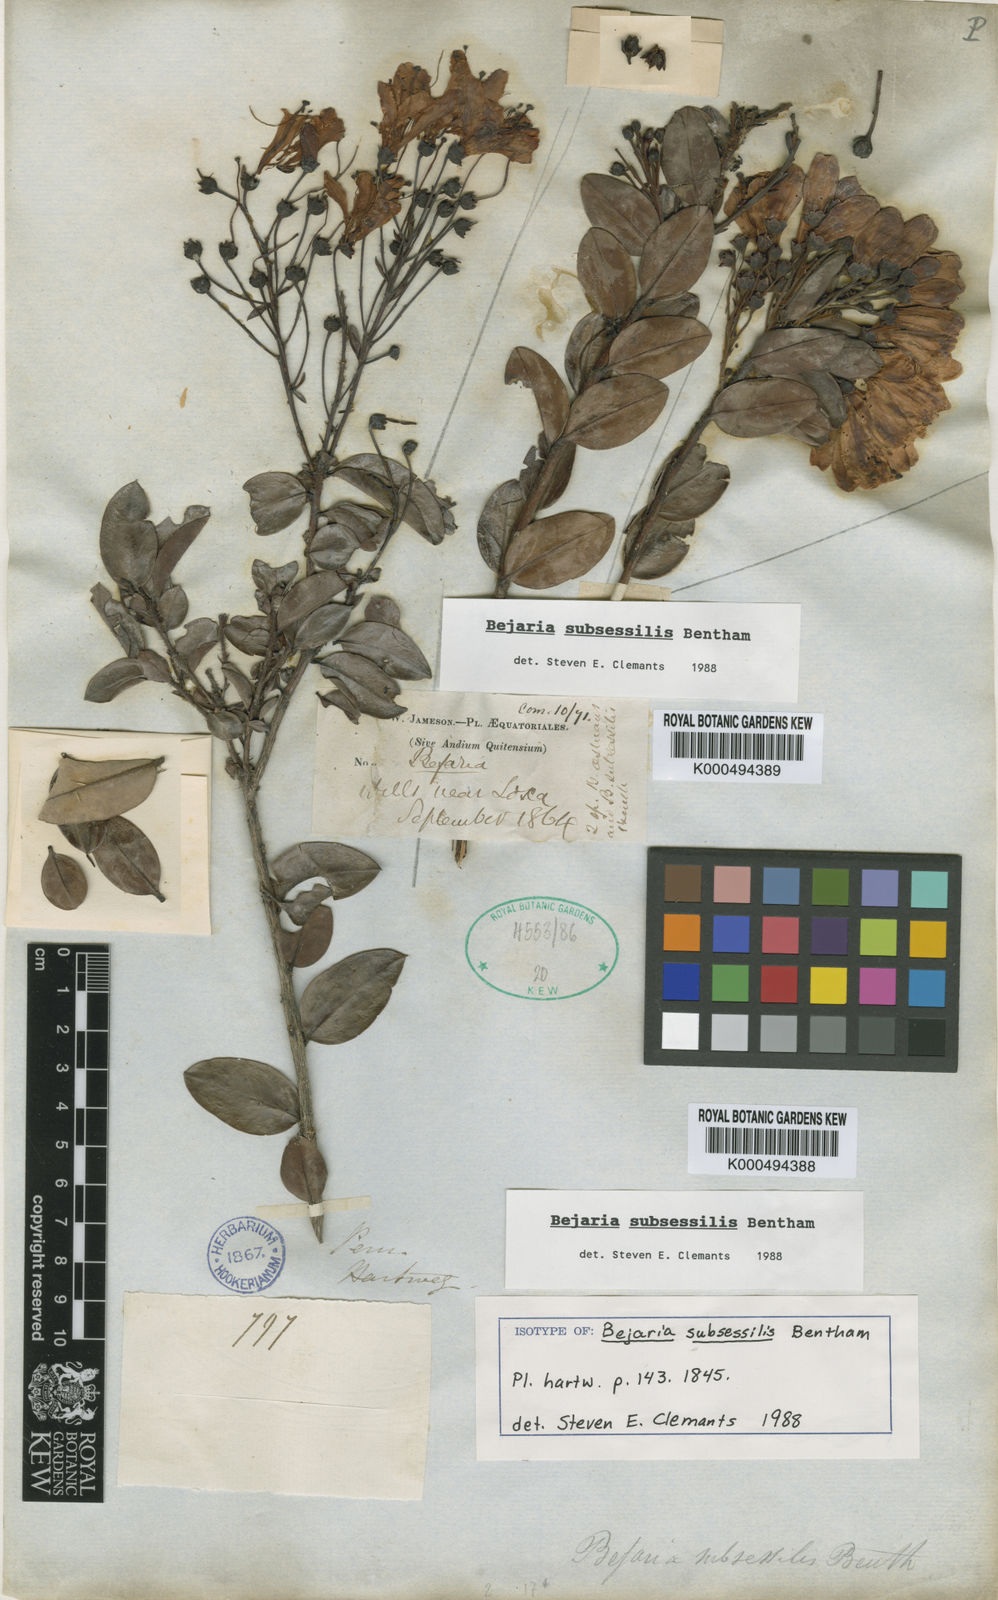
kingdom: Plantae
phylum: Tracheophyta
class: Magnoliopsida
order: Ericales
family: Ericaceae
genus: Bejaria
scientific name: Bejaria subsessilis
